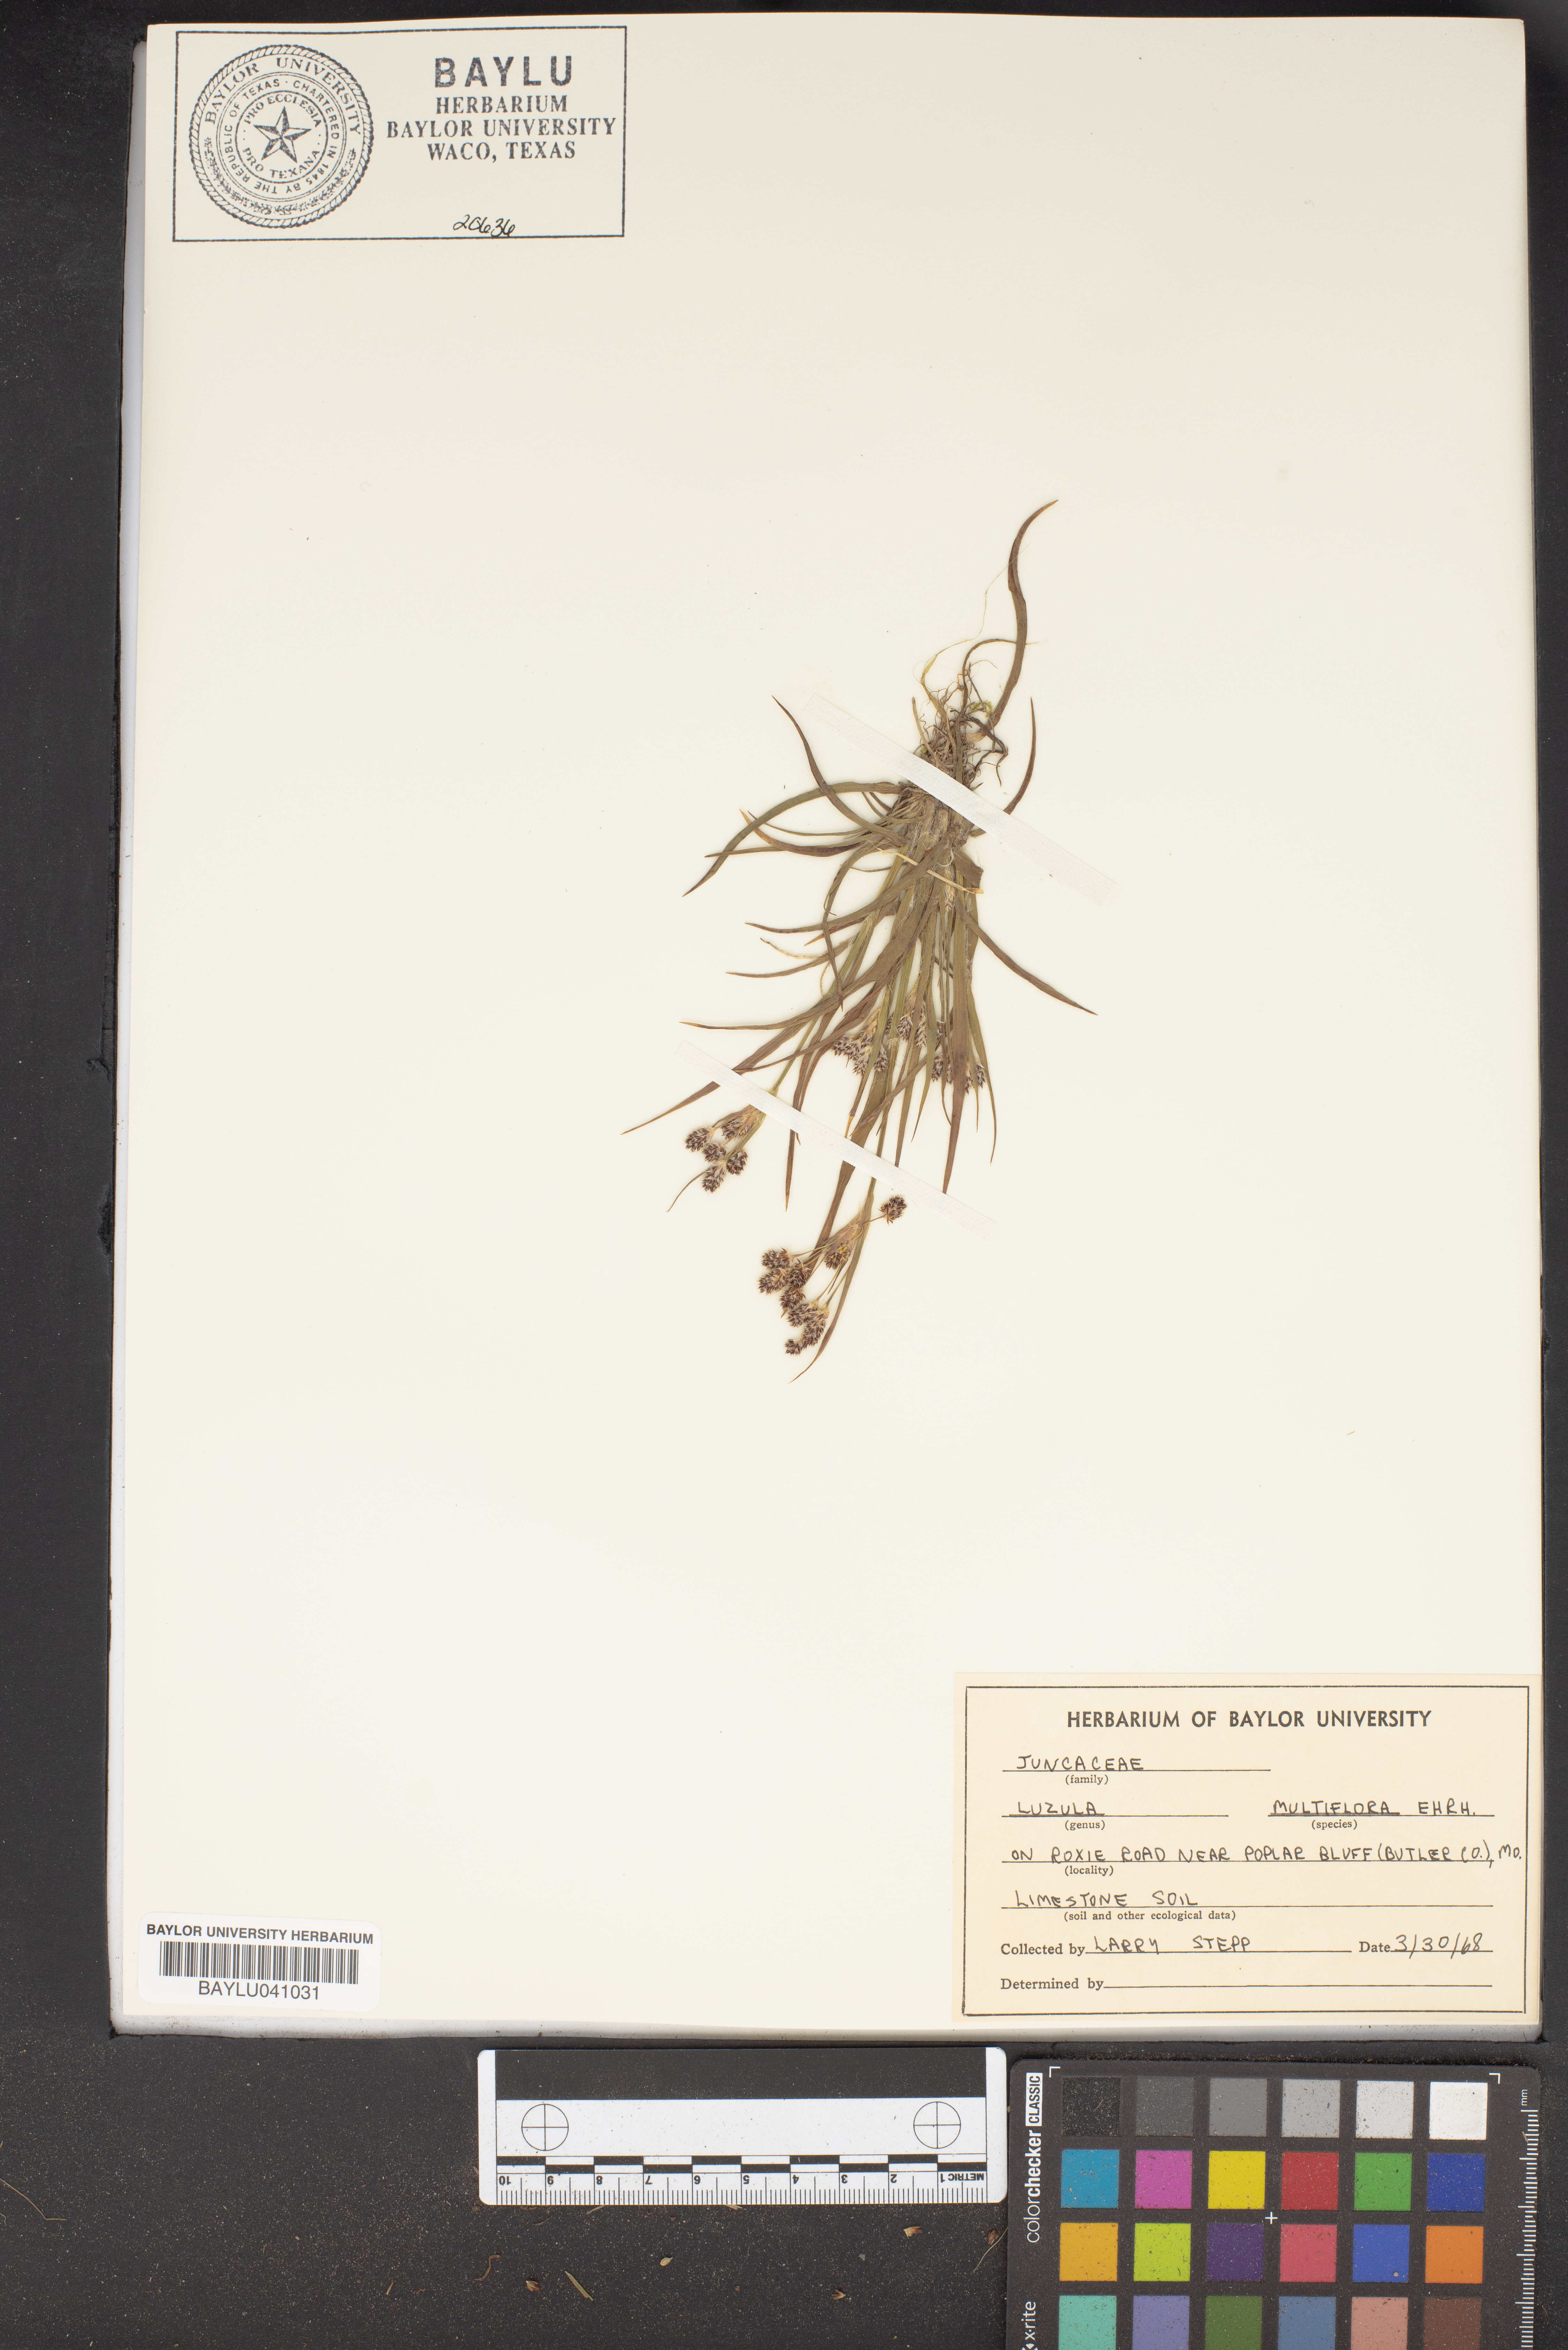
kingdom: Plantae
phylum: Tracheophyta
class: Liliopsida
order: Poales
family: Juncaceae
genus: Luzula
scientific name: Luzula multiflora
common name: Heath wood-rush
